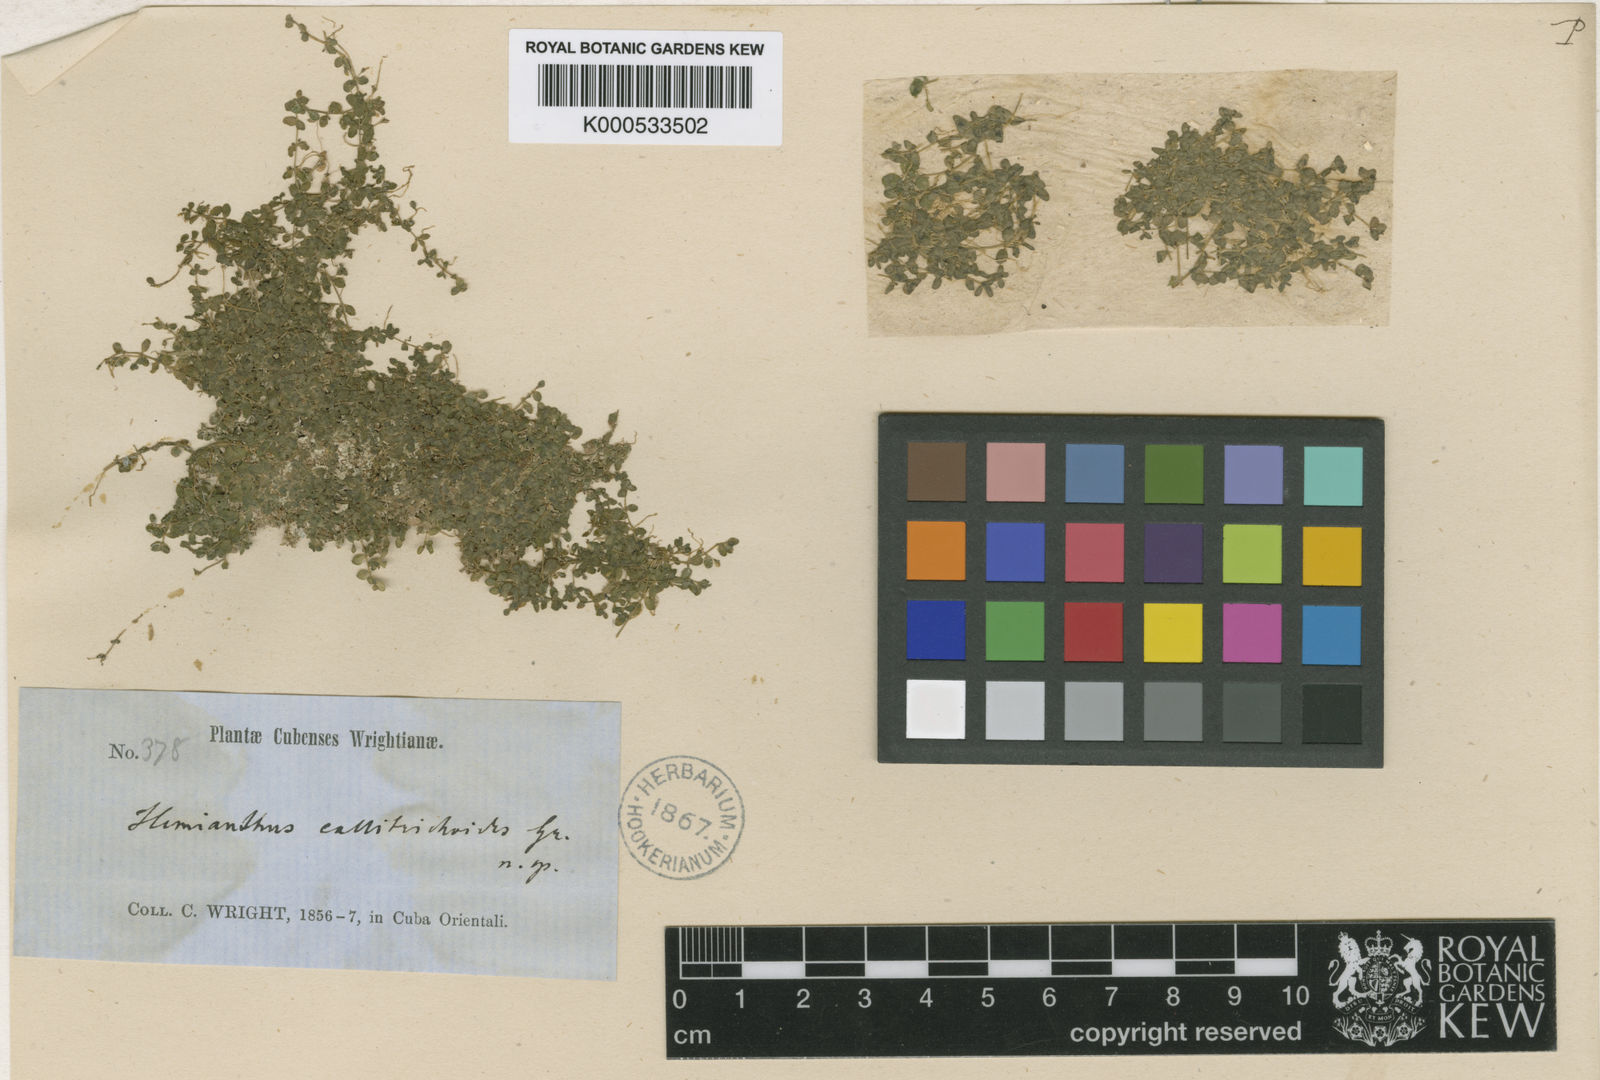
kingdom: Plantae
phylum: Tracheophyta
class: Magnoliopsida
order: Lamiales
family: Linderniaceae
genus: Micranthemum
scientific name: Micranthemum callitrichoides
